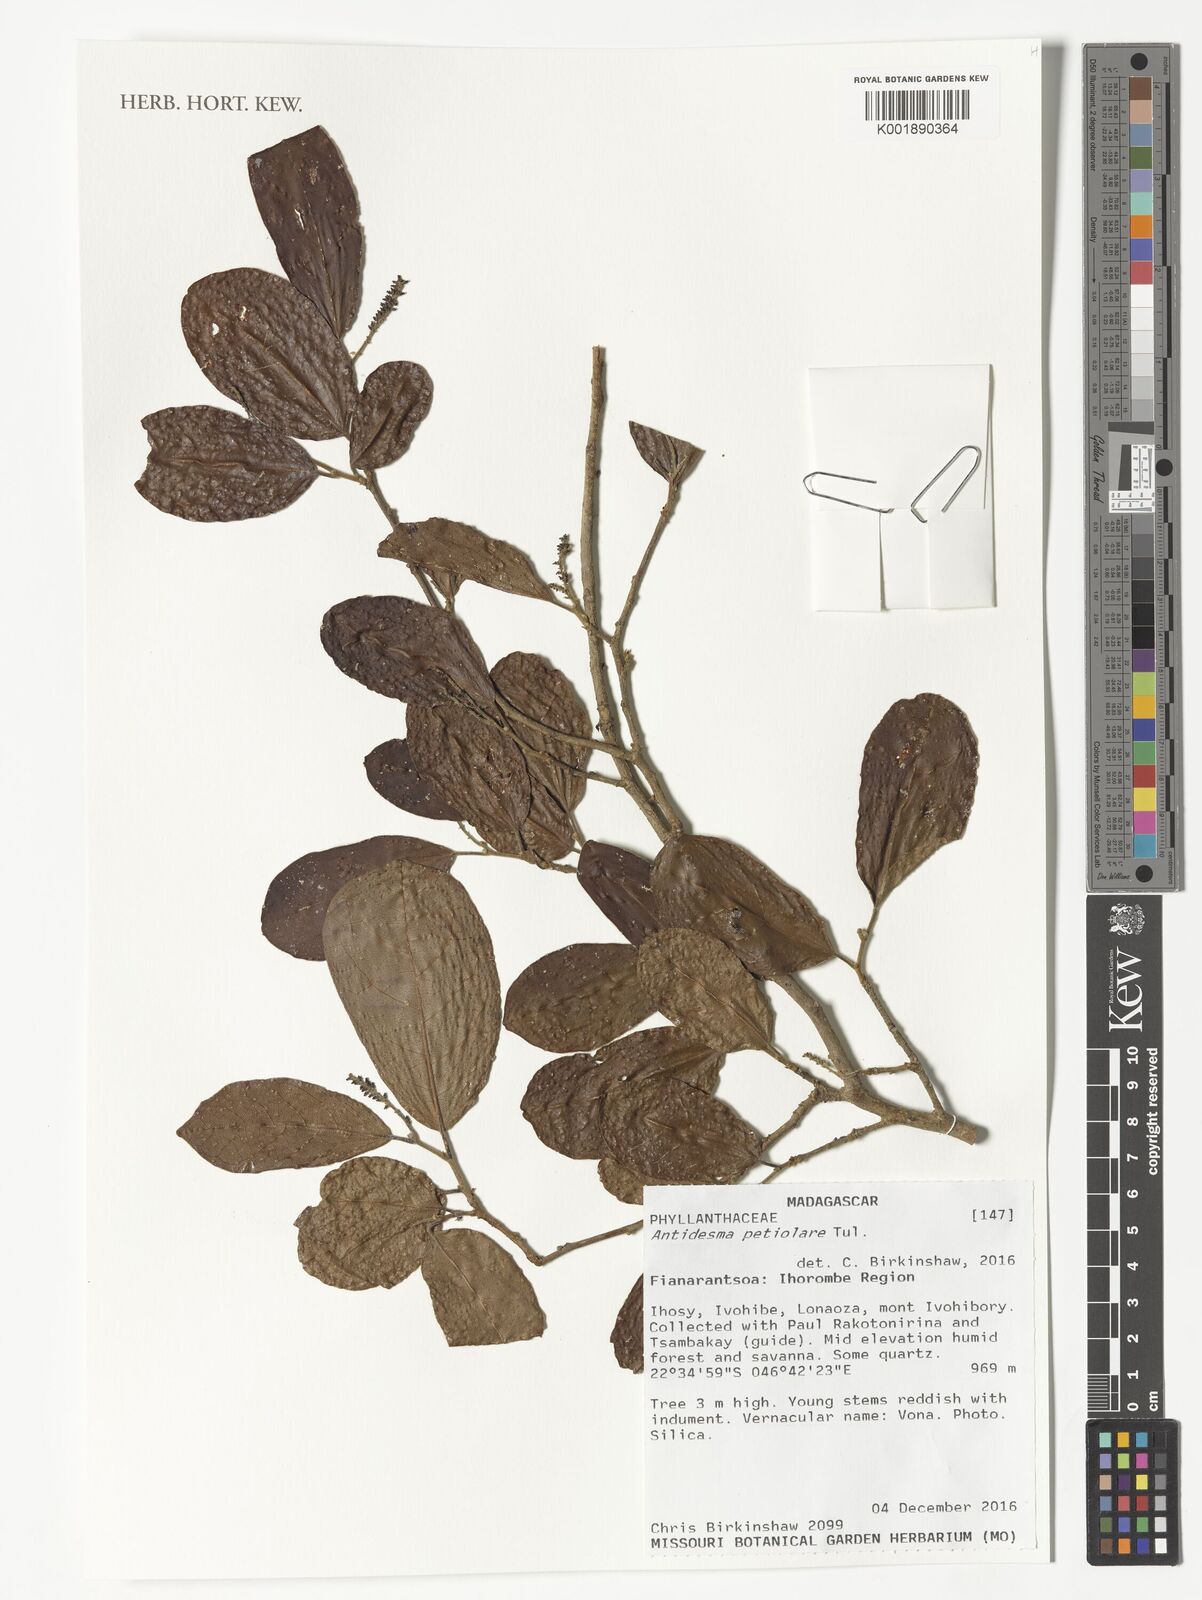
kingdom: Plantae
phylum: Tracheophyta
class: Magnoliopsida
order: Malpighiales
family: Phyllanthaceae
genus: Antidesma
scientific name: Antidesma madagascariense
